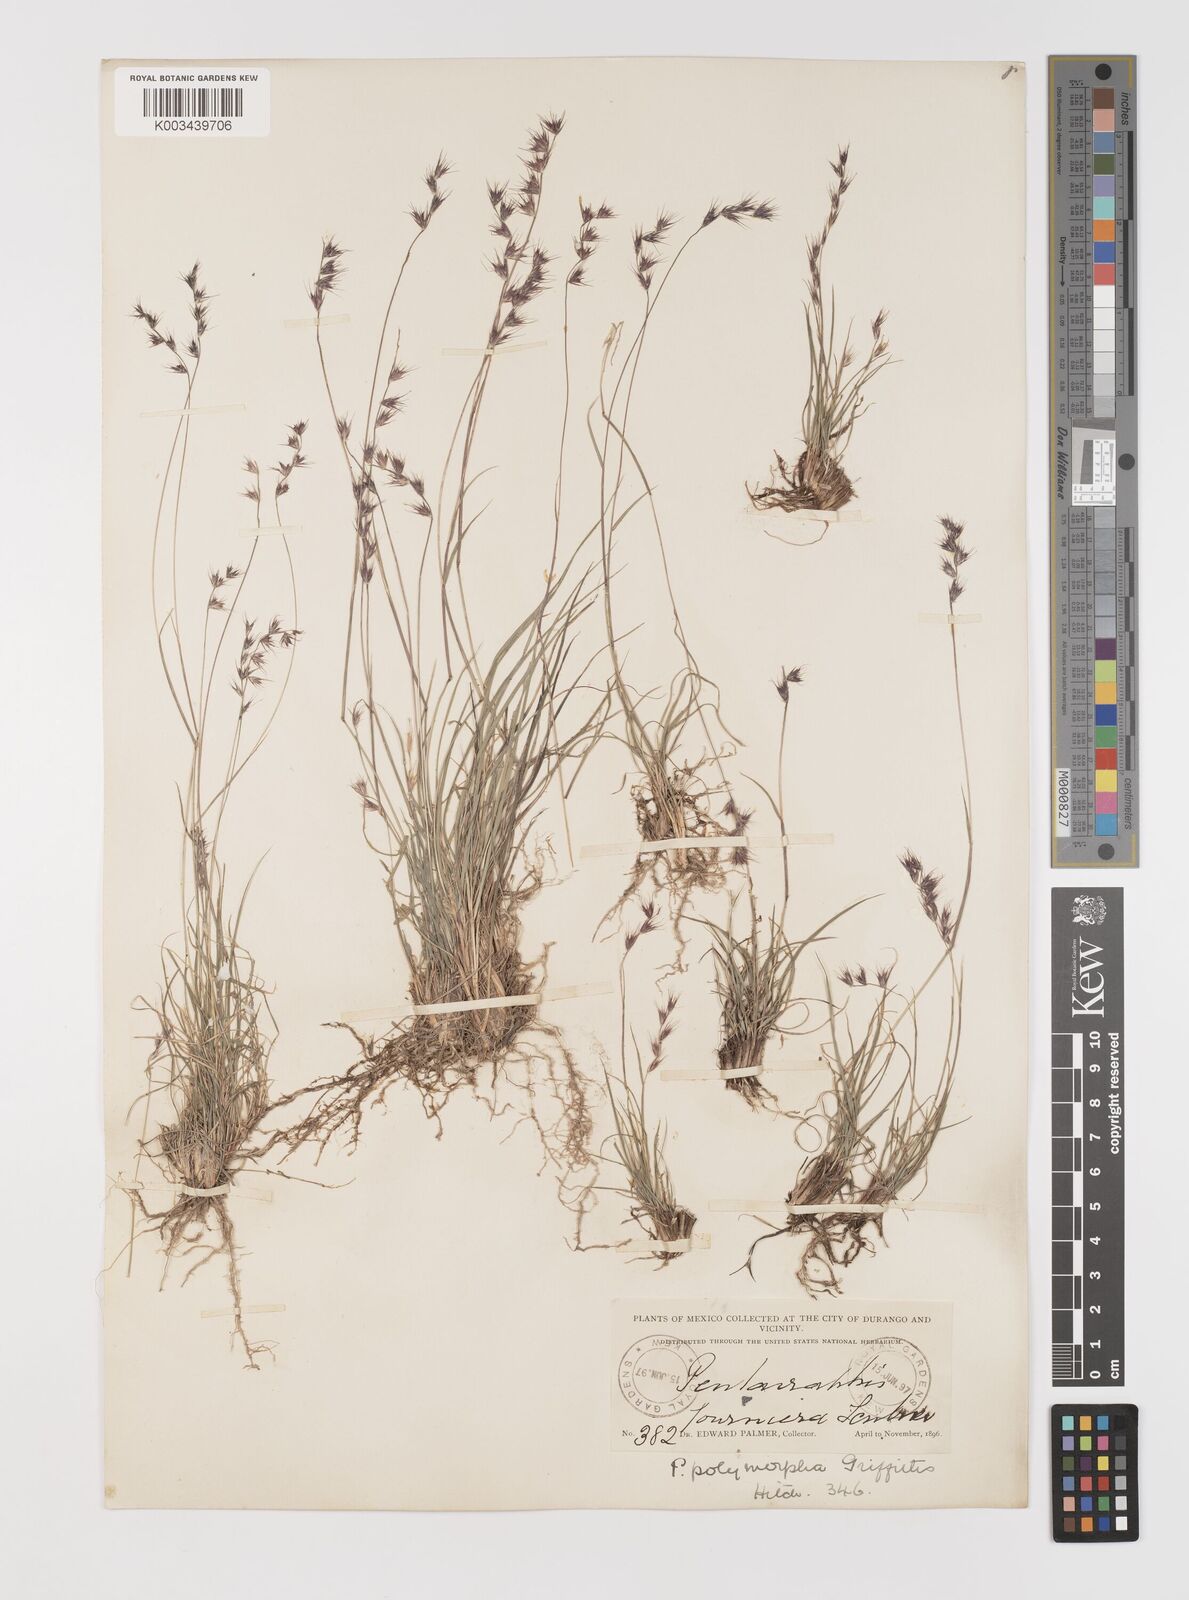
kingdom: Plantae
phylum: Tracheophyta
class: Liliopsida
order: Poales
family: Poaceae
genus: Bouteloua
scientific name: Bouteloua polymorpha
